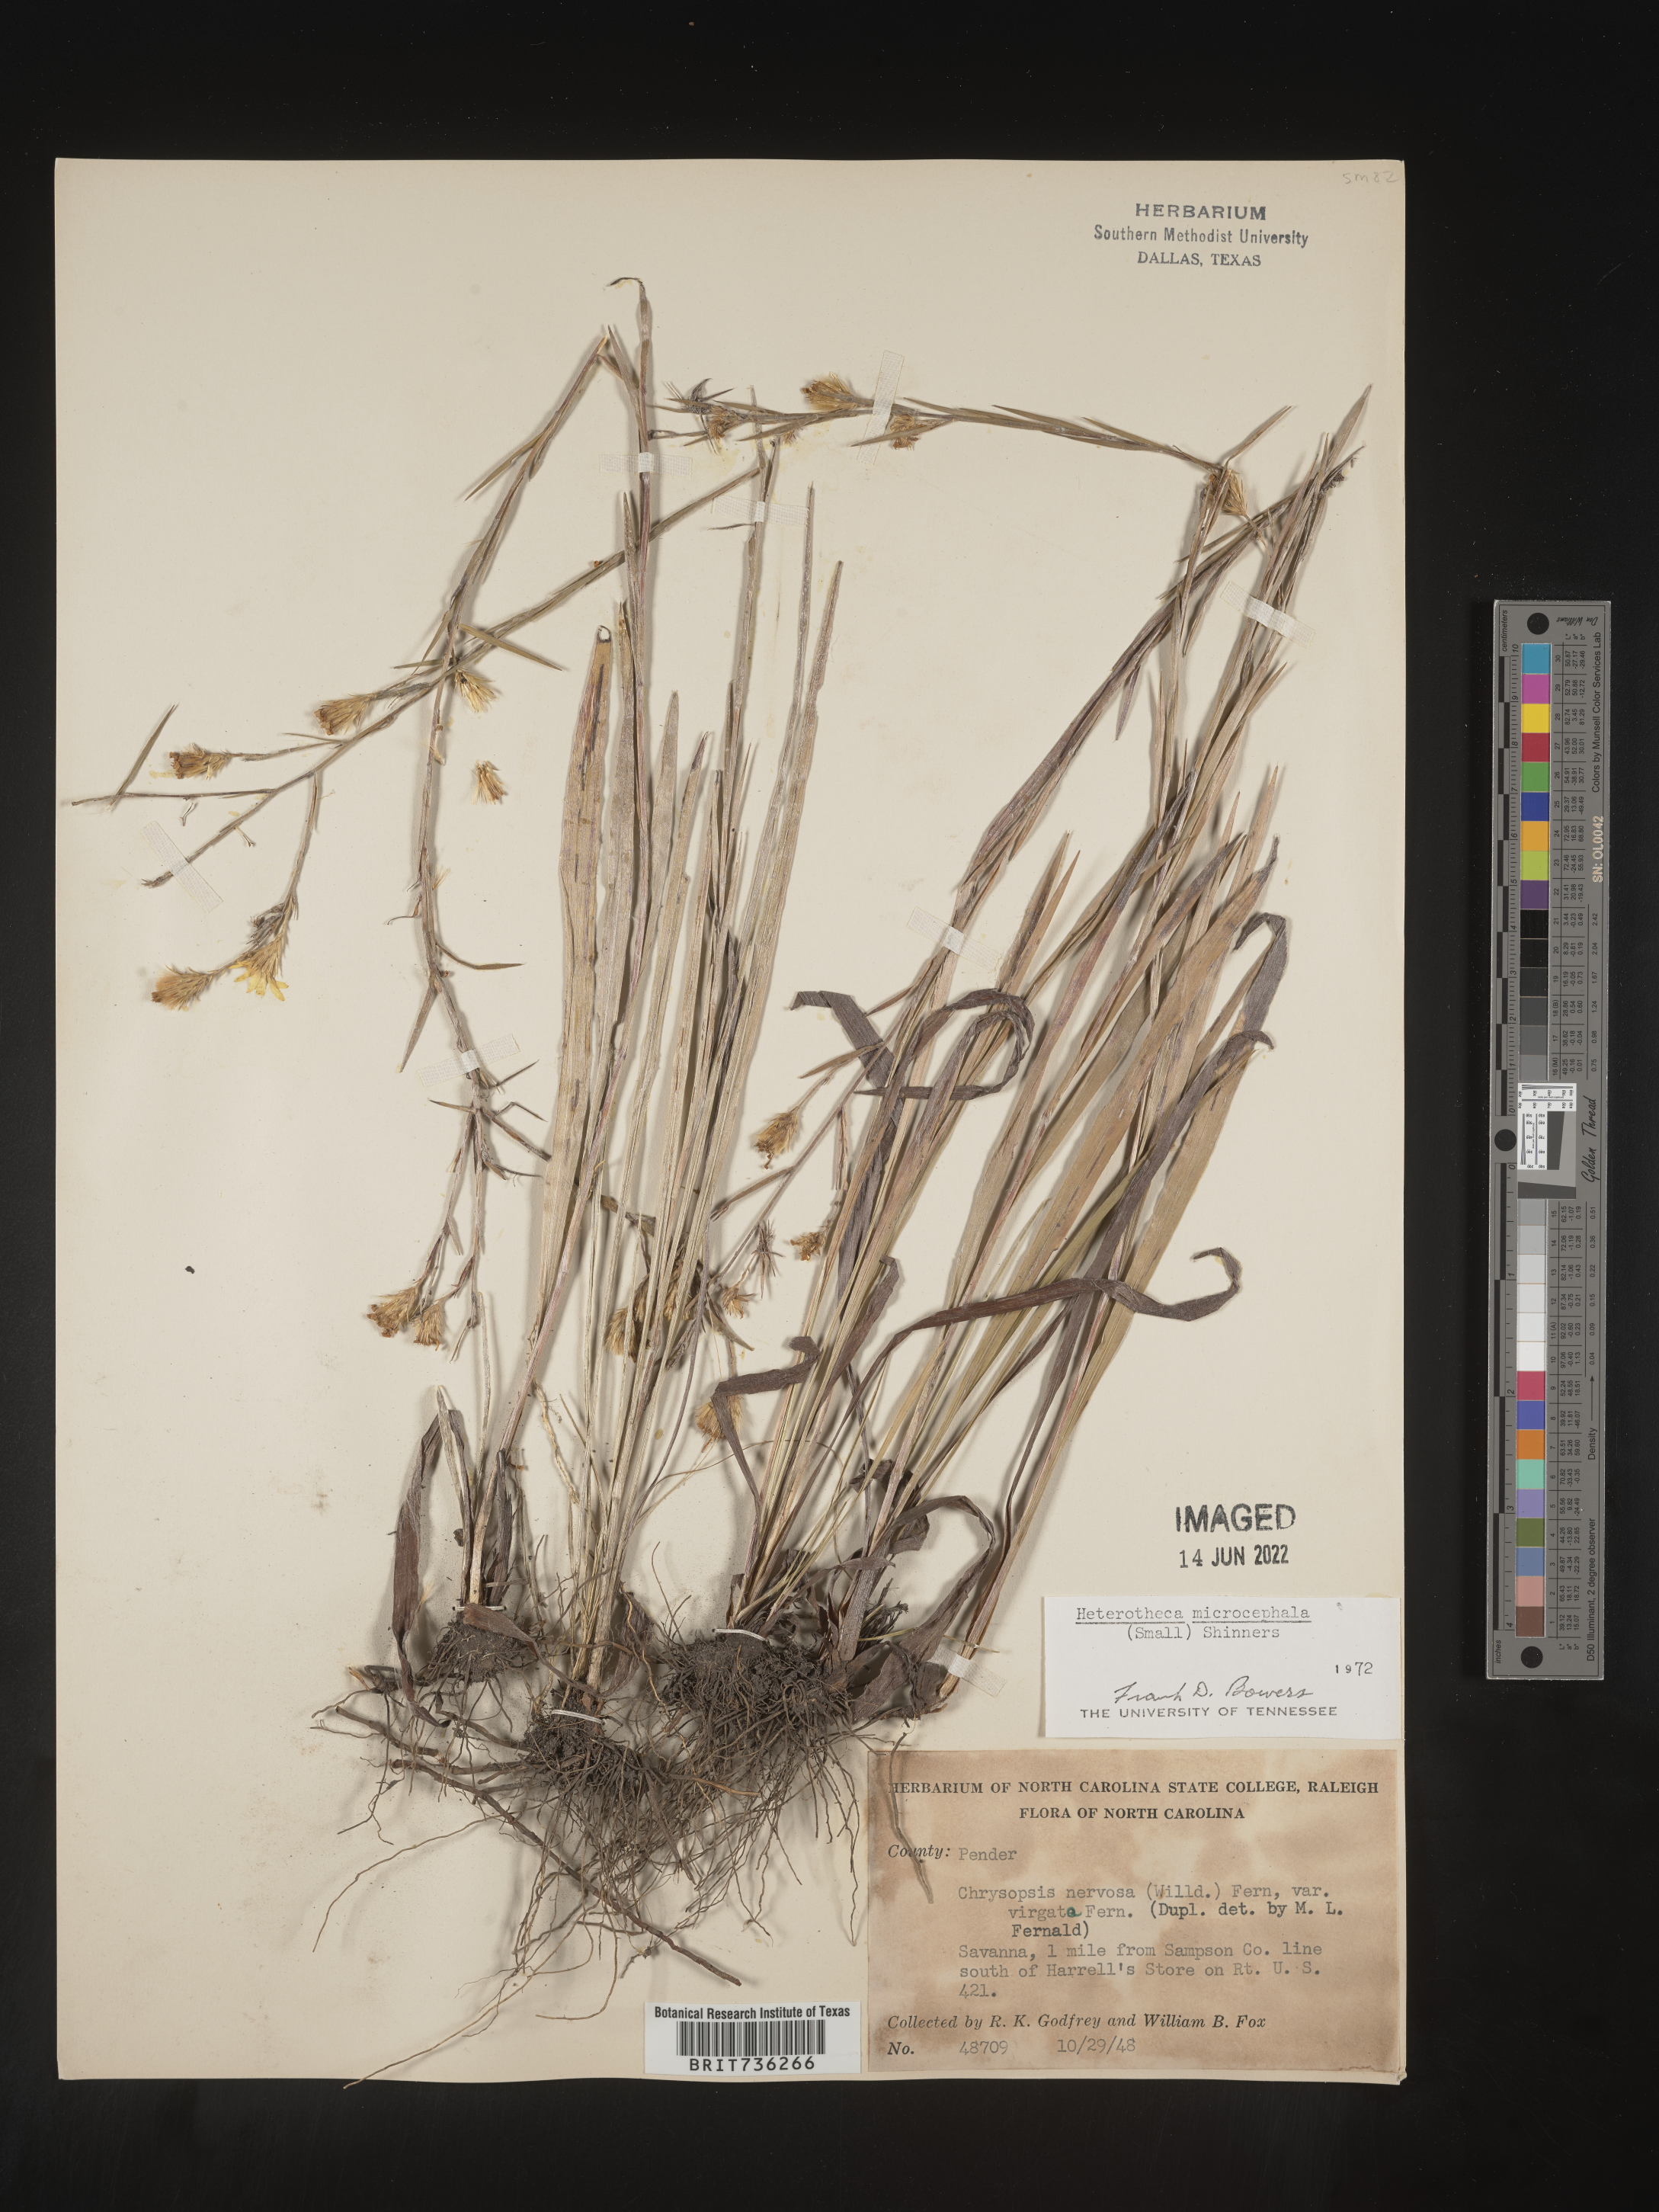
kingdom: Plantae
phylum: Tracheophyta
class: Magnoliopsida
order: Asterales
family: Asteraceae
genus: Pityopsis
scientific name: Pityopsis graminifolia
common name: Grass-leaf golden-aster
